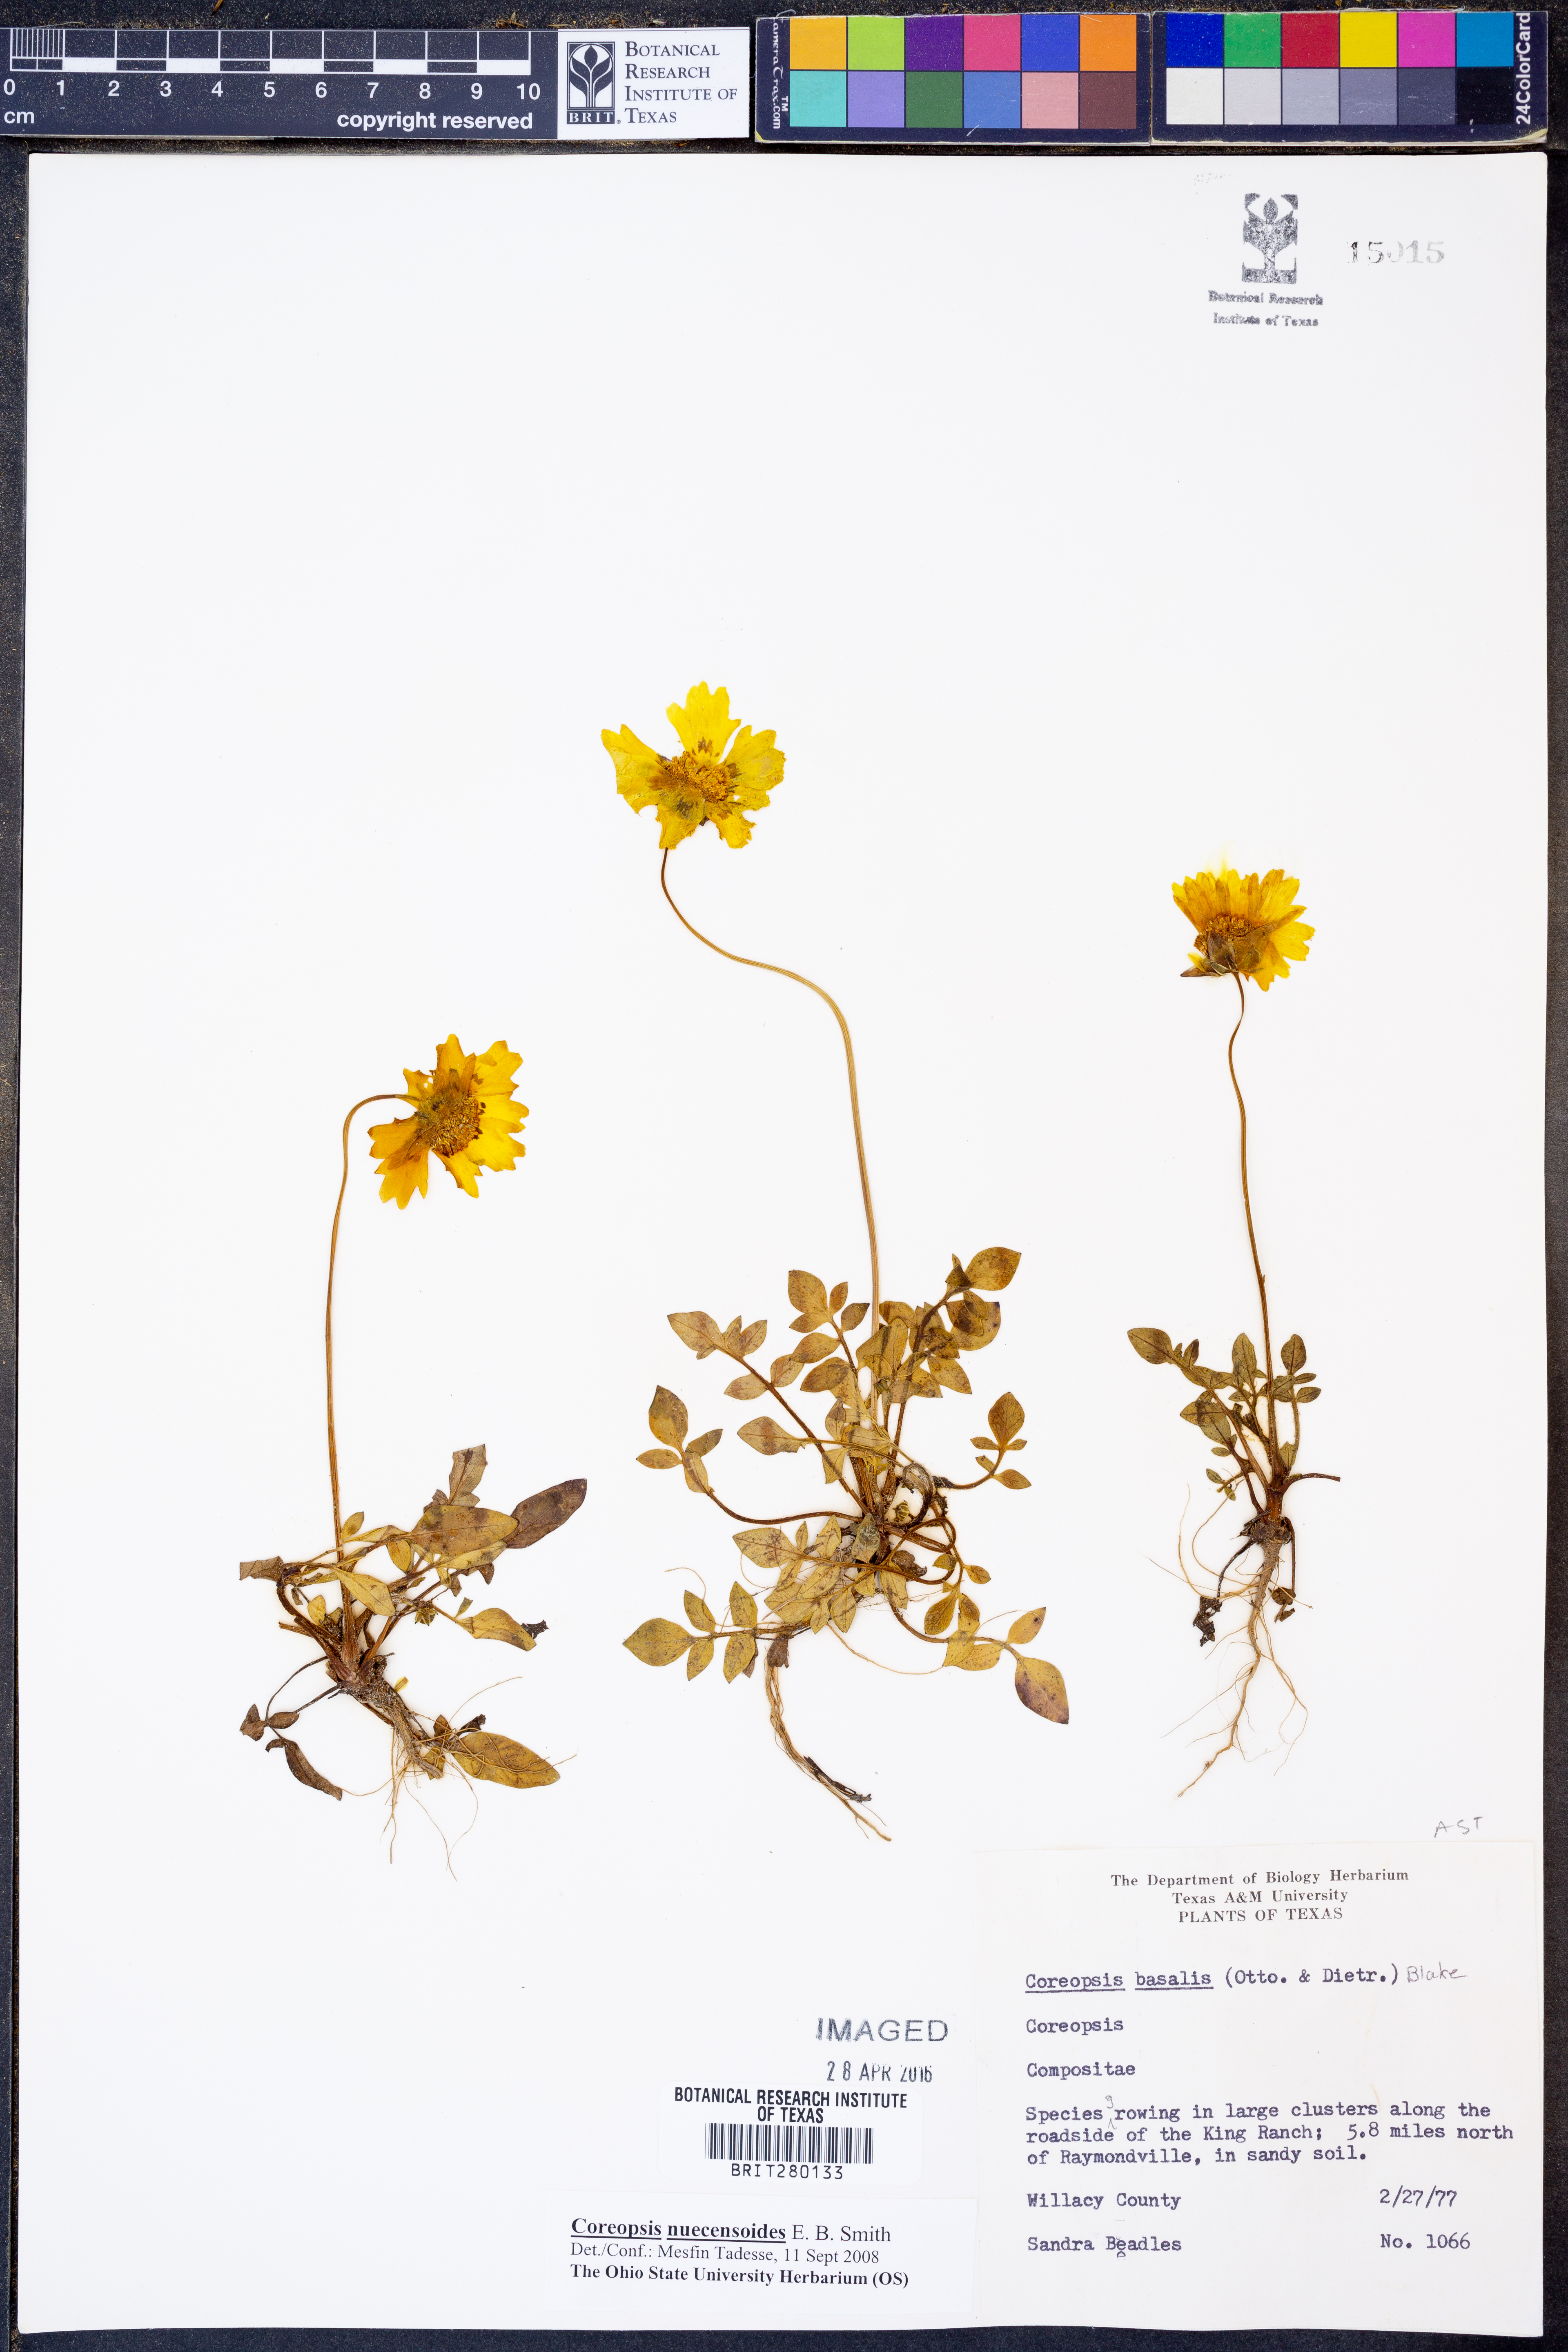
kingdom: Plantae
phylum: Tracheophyta
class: Magnoliopsida
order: Asterales
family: Asteraceae
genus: Coreopsis
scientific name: Coreopsis nuecensis
